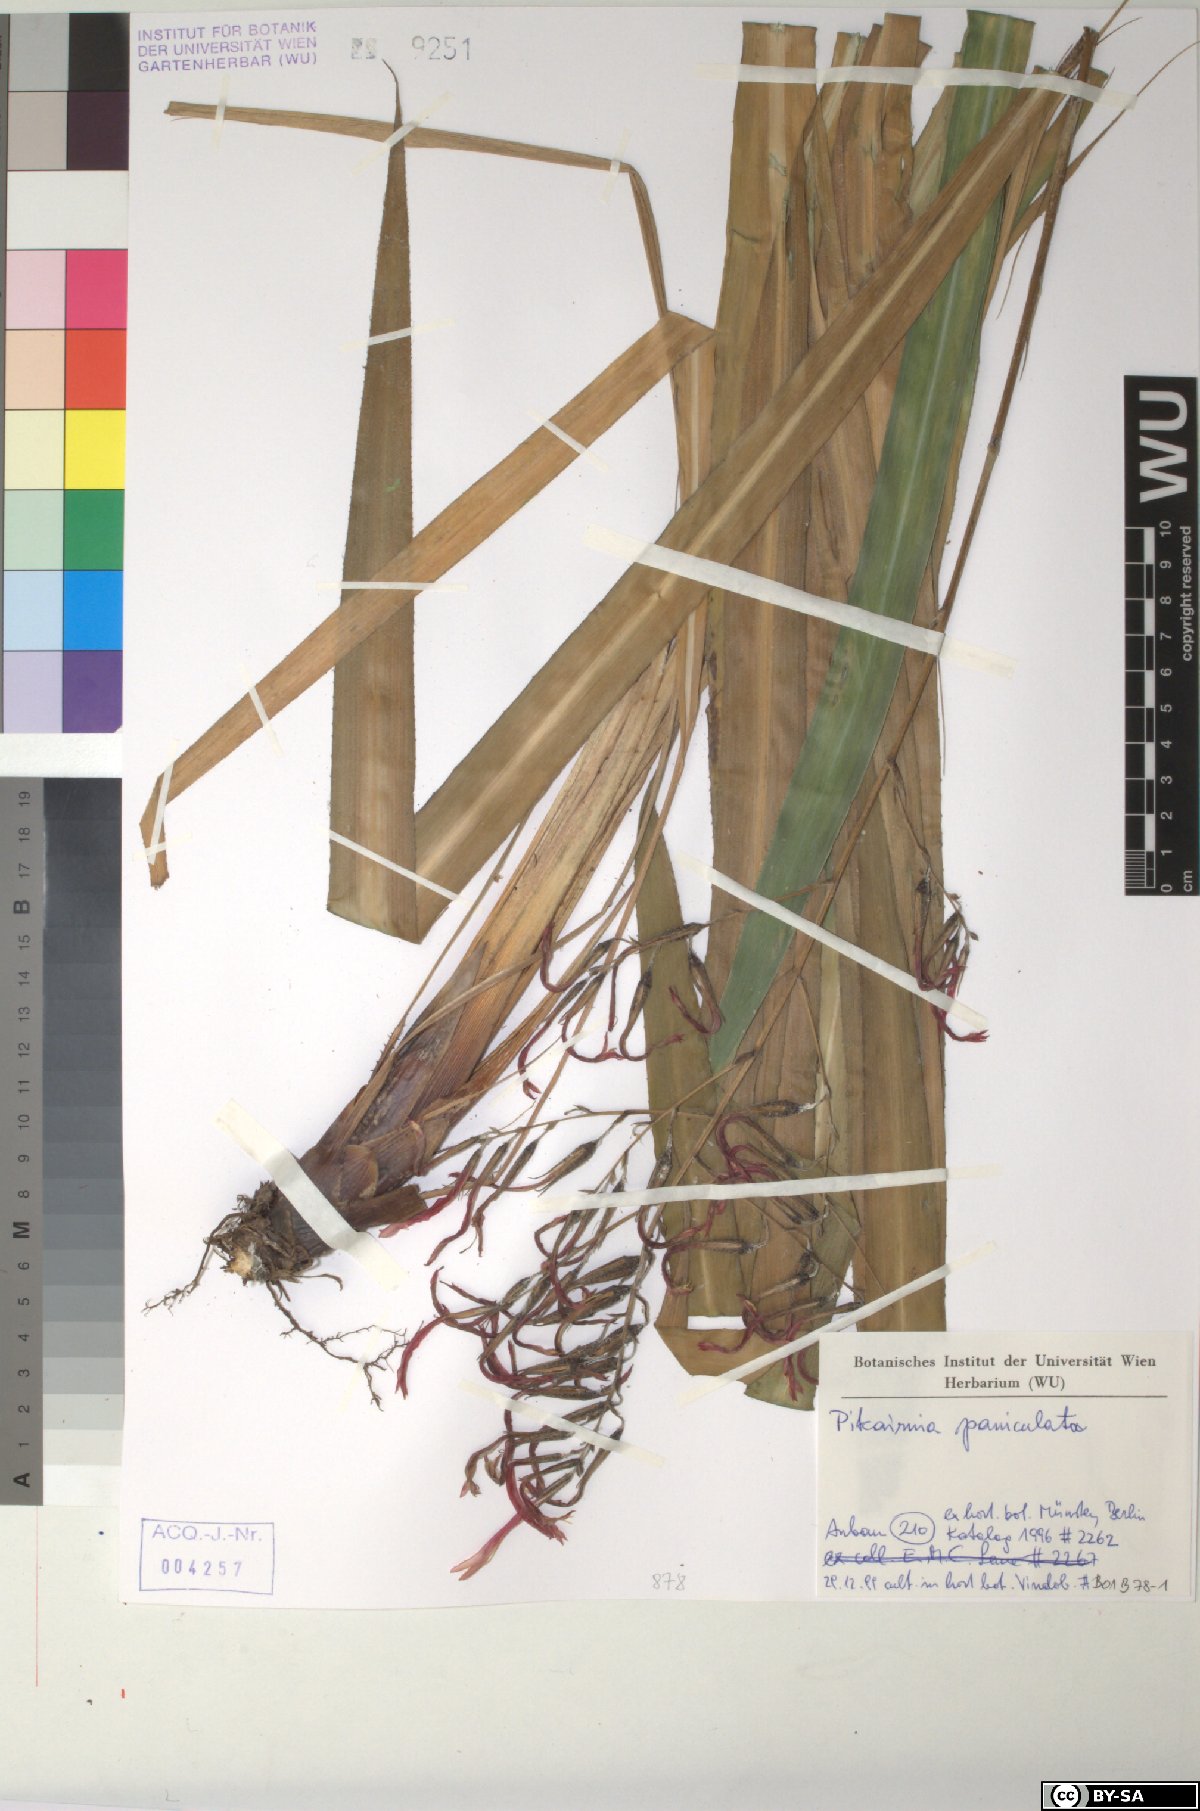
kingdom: Plantae
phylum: Tracheophyta
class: Liliopsida
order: Poales
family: Bromeliaceae
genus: Pitcairnia
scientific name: Pitcairnia paniculata
